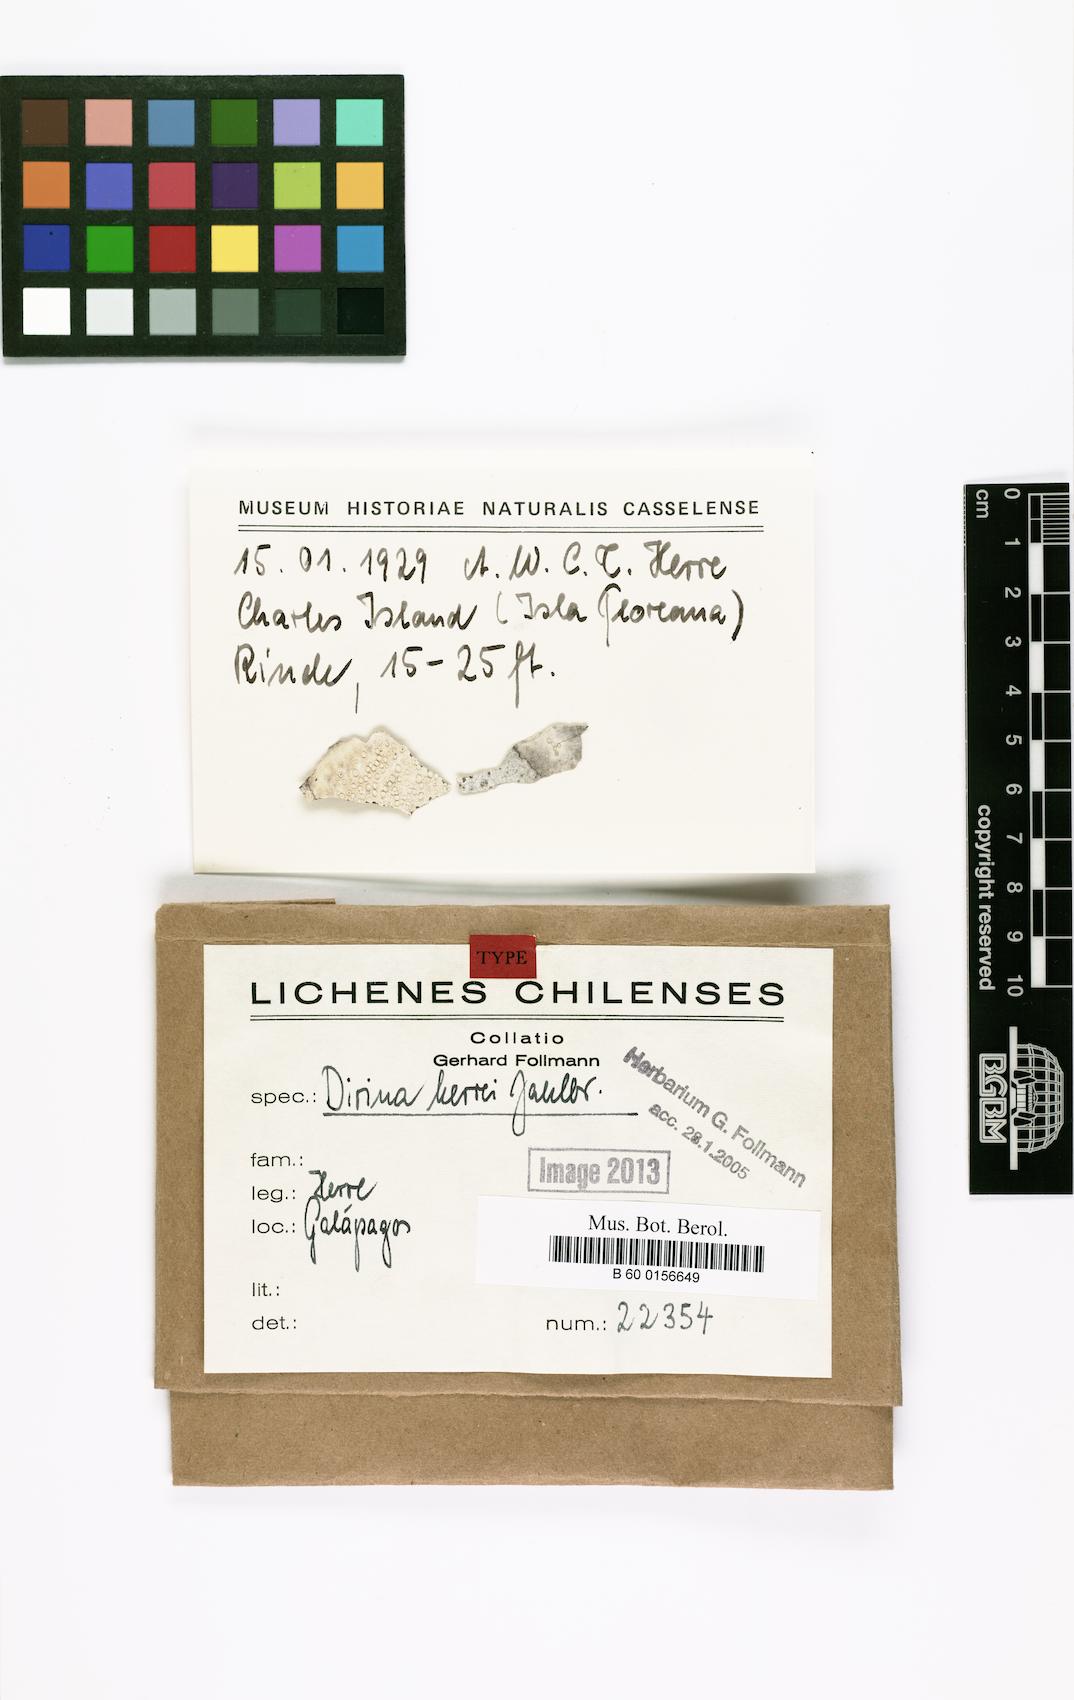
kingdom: Fungi
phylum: Ascomycota
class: Arthoniomycetes
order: Arthoniales
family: Roccellaceae
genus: Dirina
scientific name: Dirina approximata
